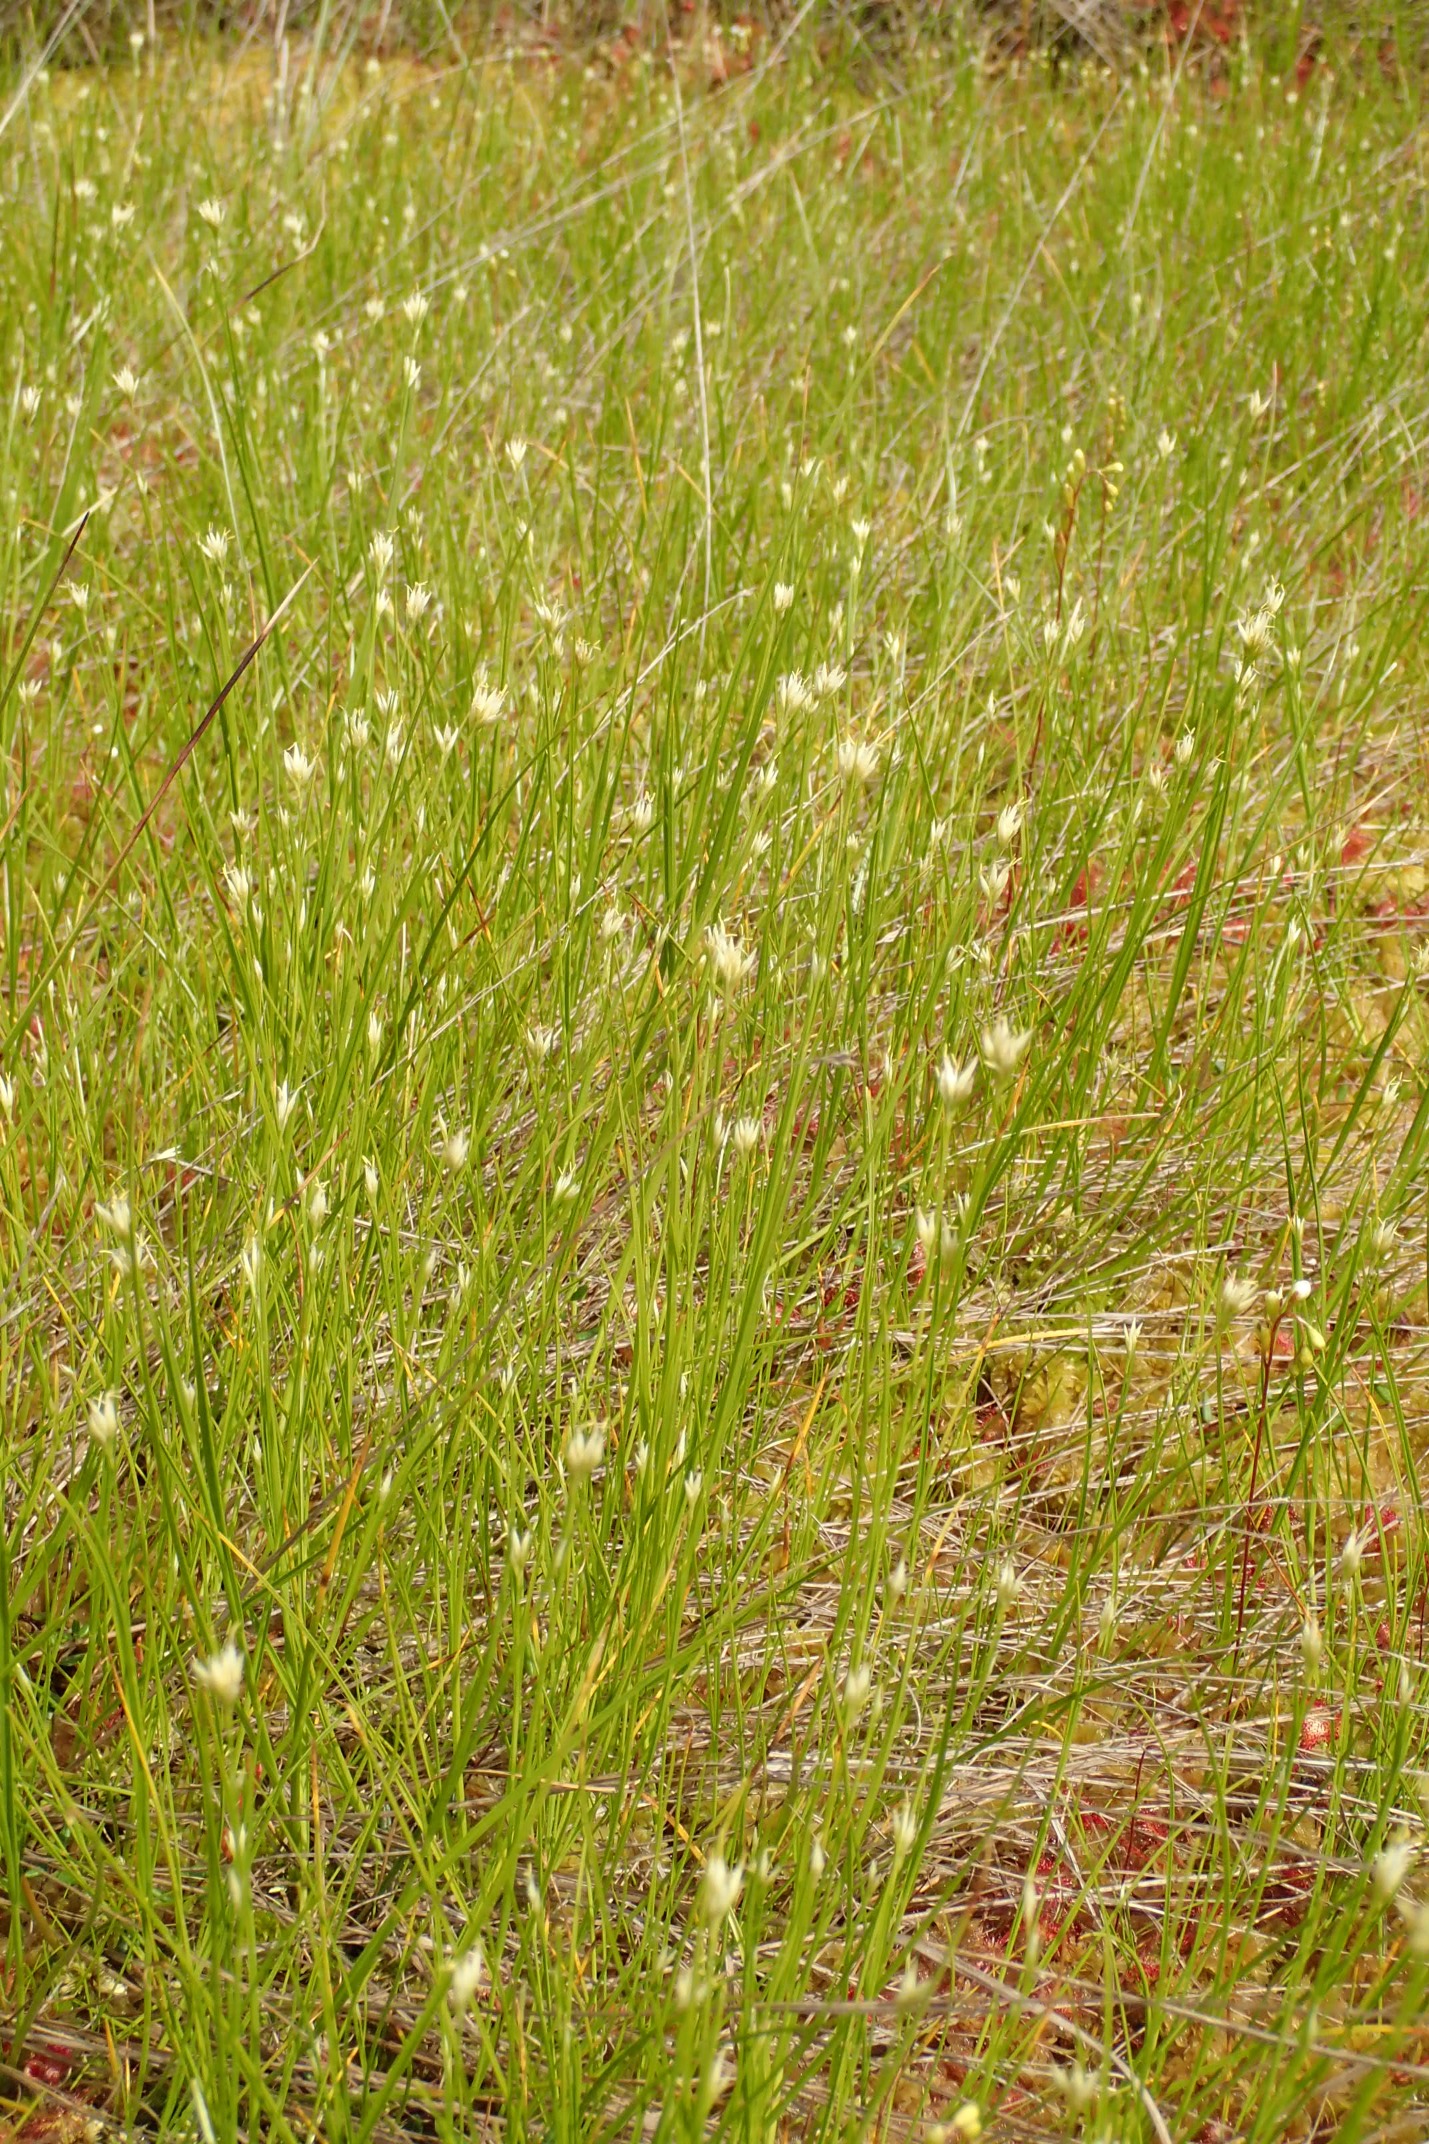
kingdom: Plantae
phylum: Tracheophyta
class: Liliopsida
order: Poales
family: Cyperaceae
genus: Rhynchospora
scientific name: Rhynchospora alba
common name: Hvid næbfrø
